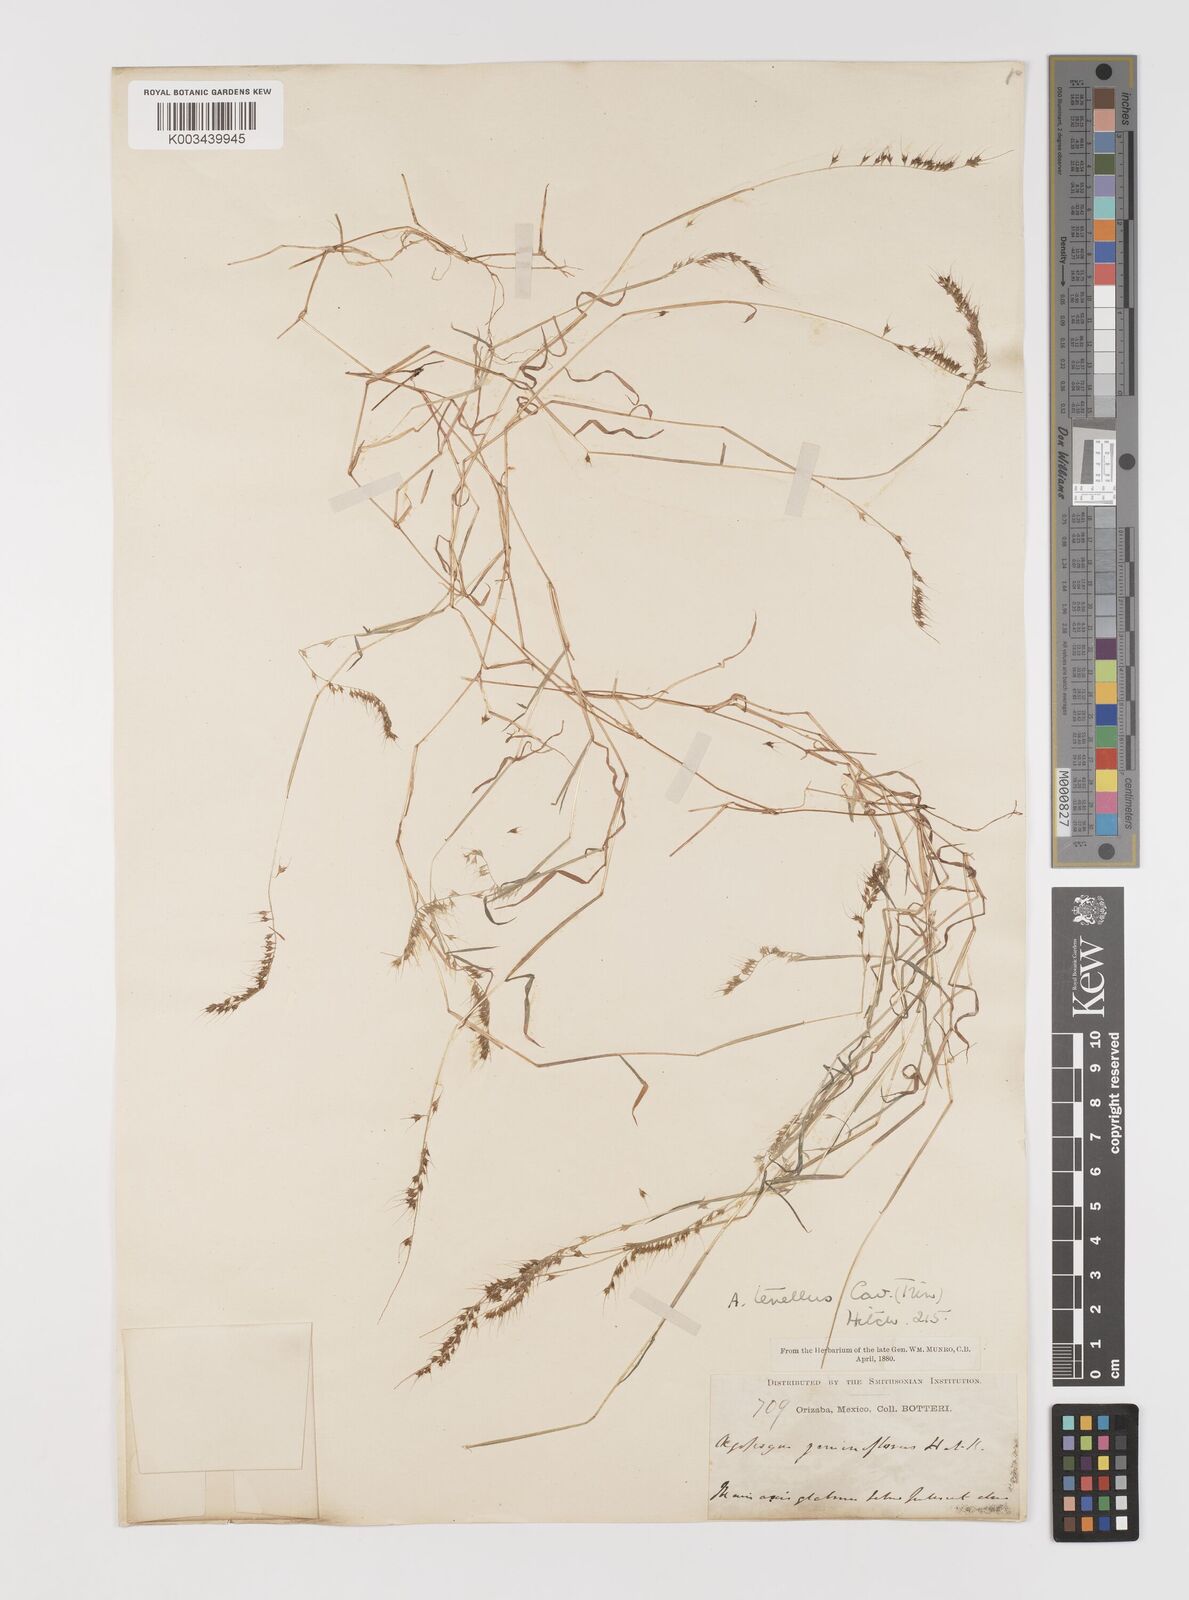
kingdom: Plantae
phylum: Tracheophyta
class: Liliopsida
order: Poales
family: Poaceae
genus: Muhlenbergia
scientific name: Muhlenbergia uniseta
